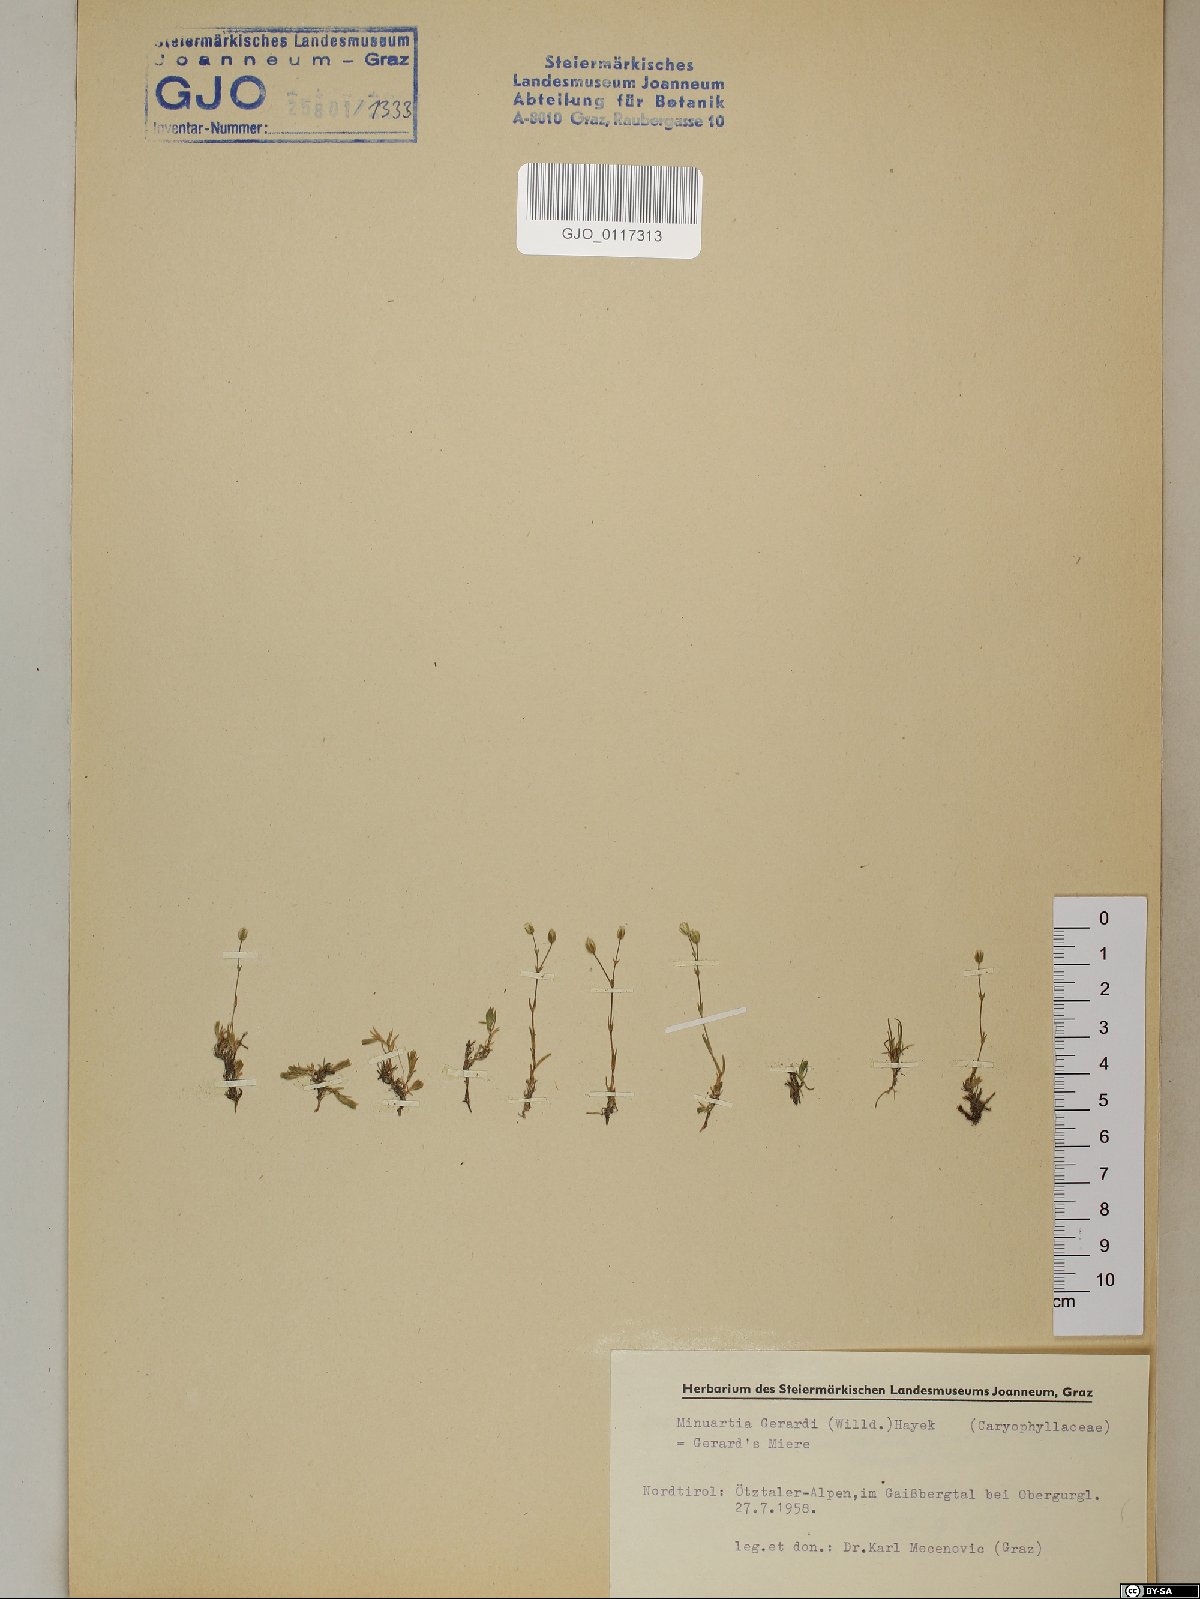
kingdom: Plantae
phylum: Tracheophyta
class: Magnoliopsida
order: Caryophyllales
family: Caryophyllaceae
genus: Sabulina
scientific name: Sabulina verna
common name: Spring sandwort
